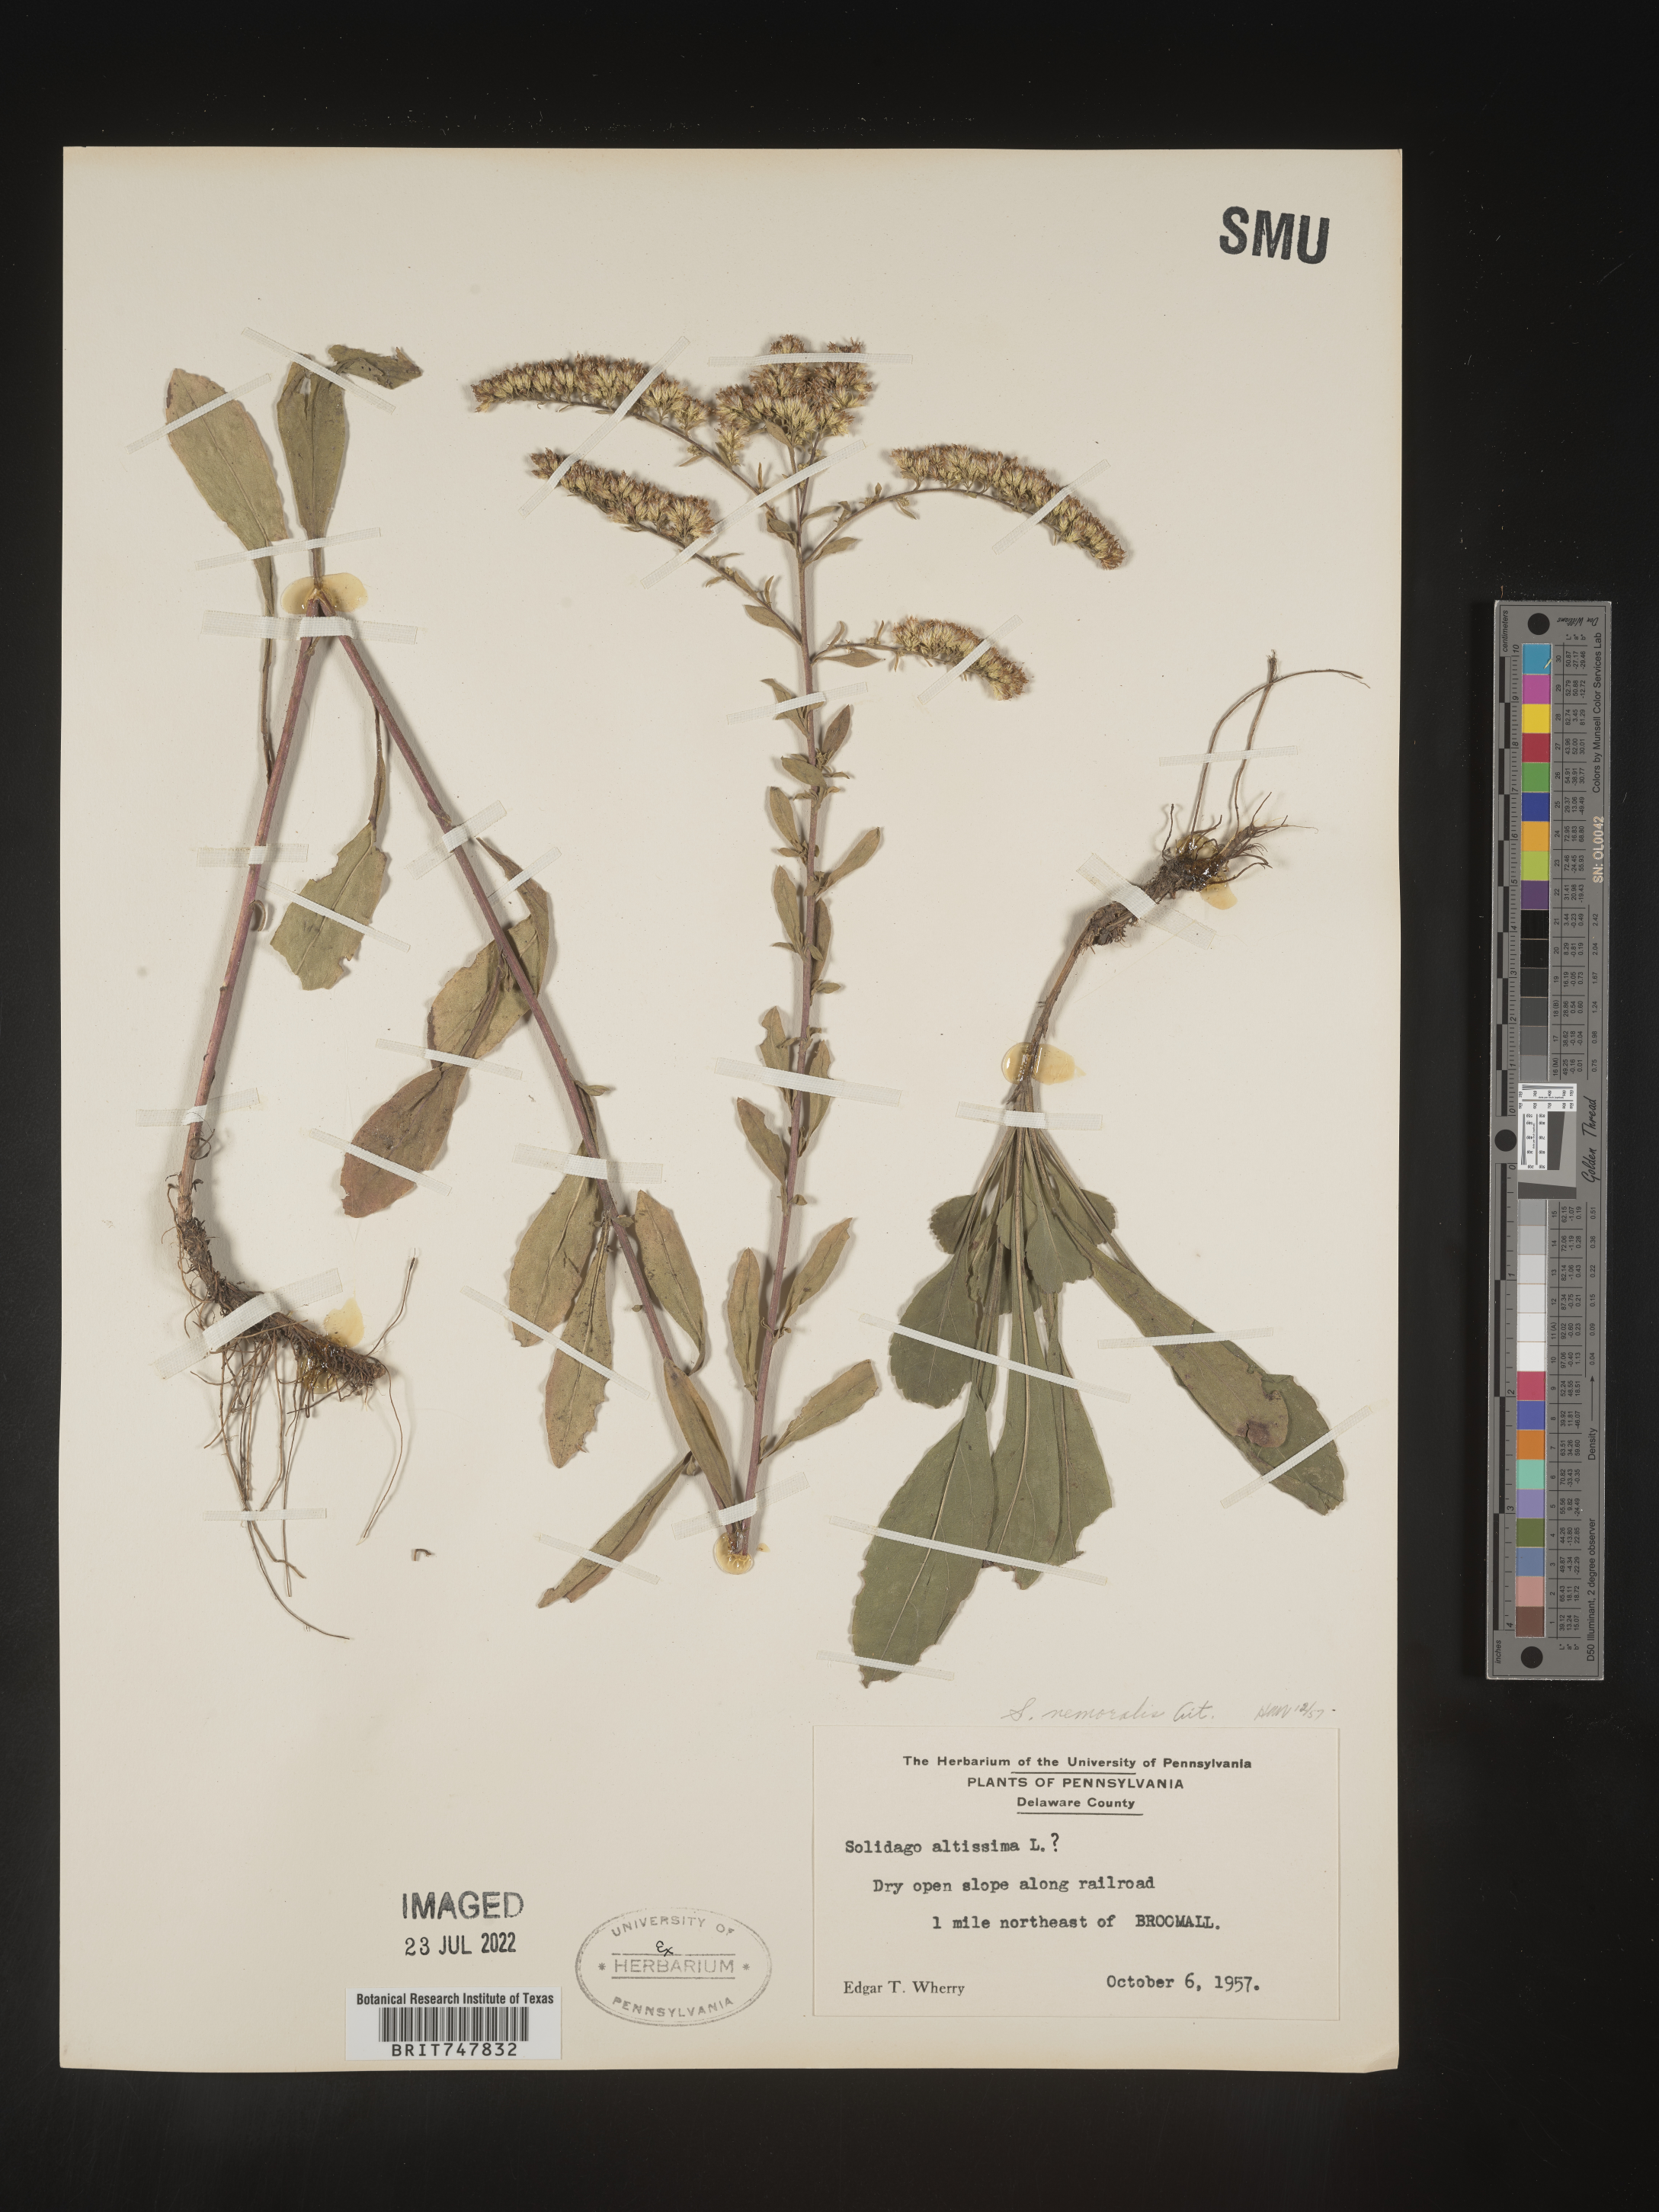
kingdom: Plantae
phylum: Tracheophyta
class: Magnoliopsida
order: Asterales
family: Asteraceae
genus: Solidago
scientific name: Solidago nemoralis
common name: Grey goldenrod
